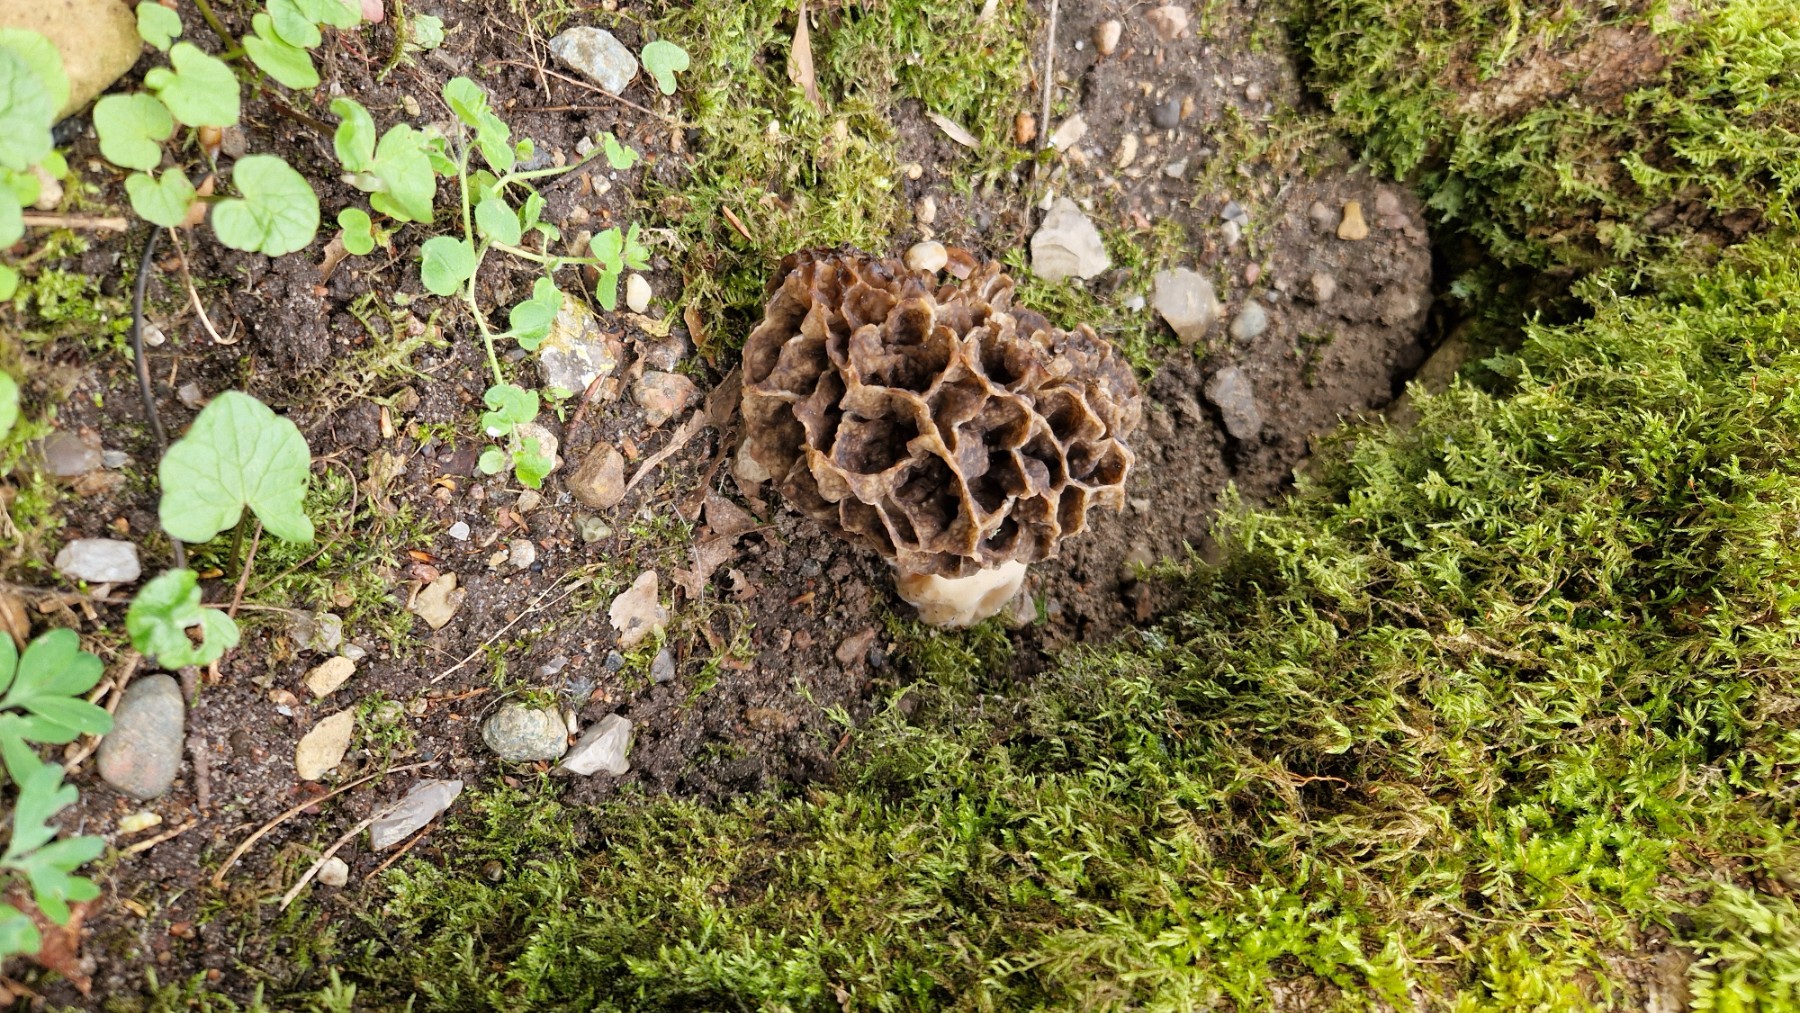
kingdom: Fungi
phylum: Ascomycota
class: Pezizomycetes
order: Pezizales
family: Morchellaceae
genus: Morchella
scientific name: Morchella esculenta
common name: almindelig morkel
